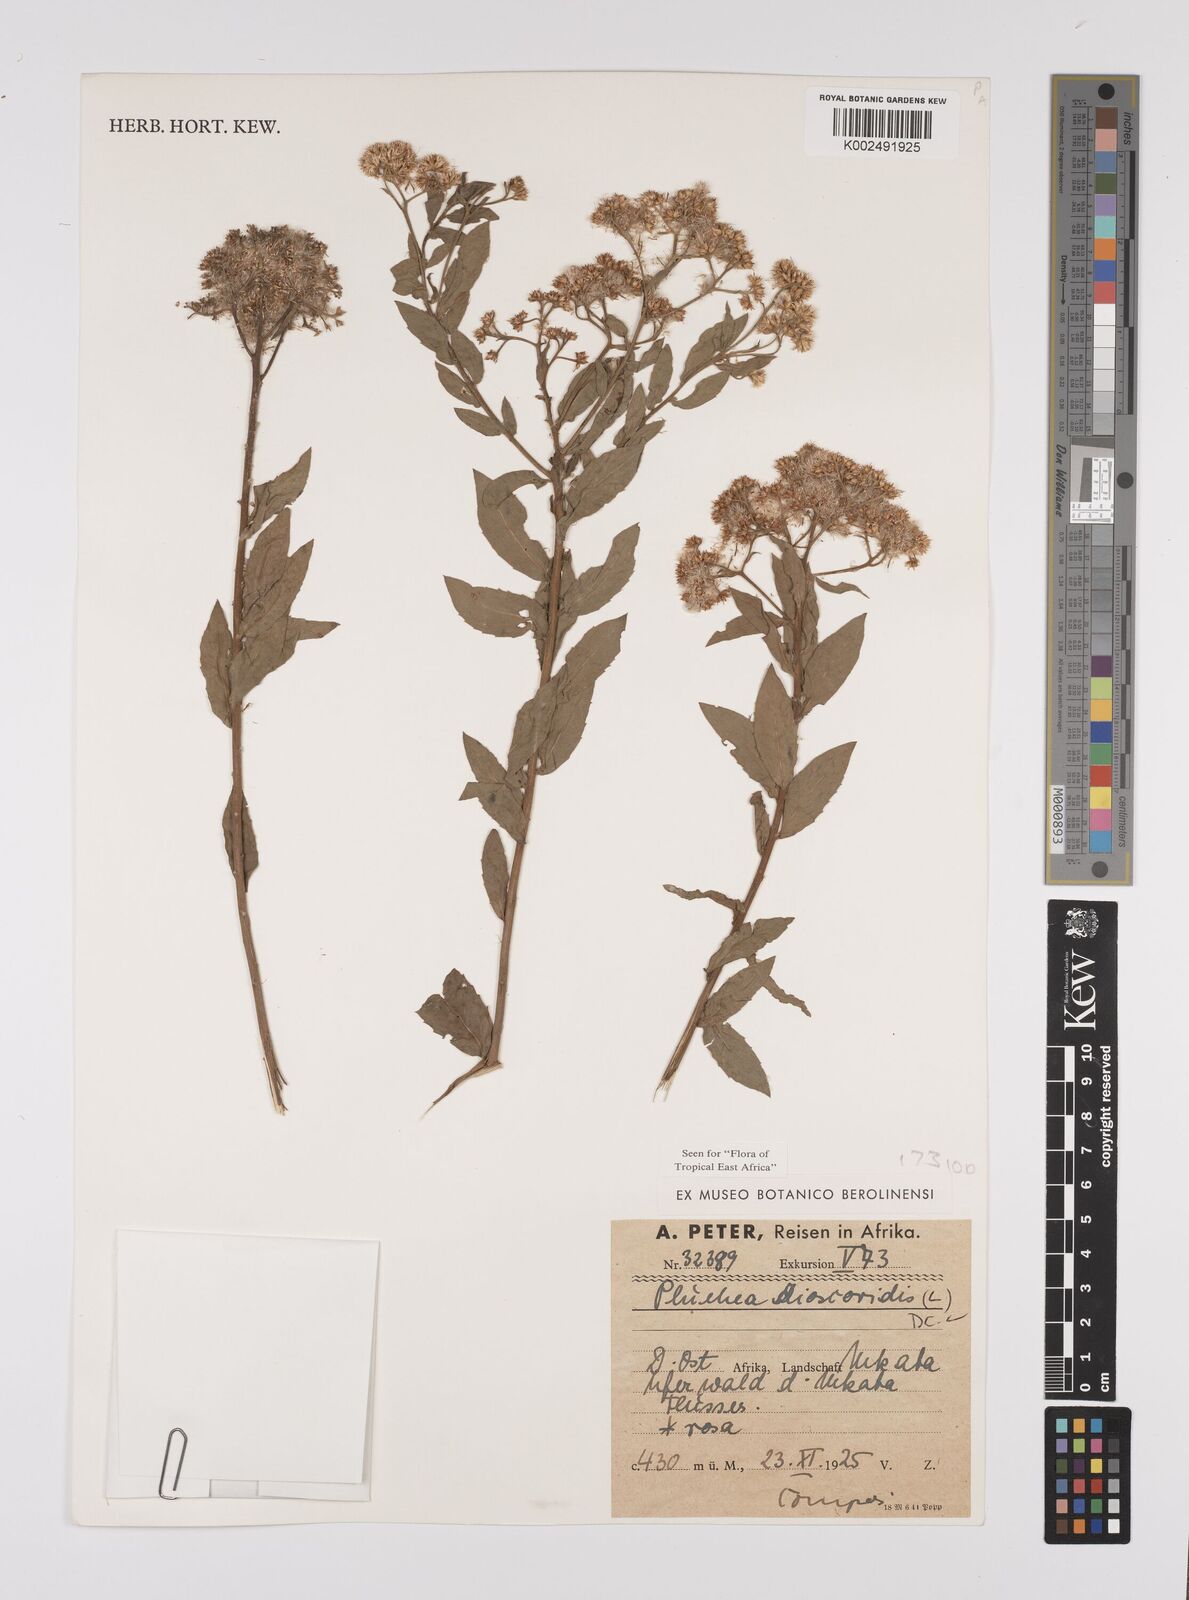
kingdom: Plantae
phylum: Tracheophyta
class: Magnoliopsida
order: Asterales
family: Asteraceae
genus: Pluchea
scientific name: Pluchea dioscoridis
